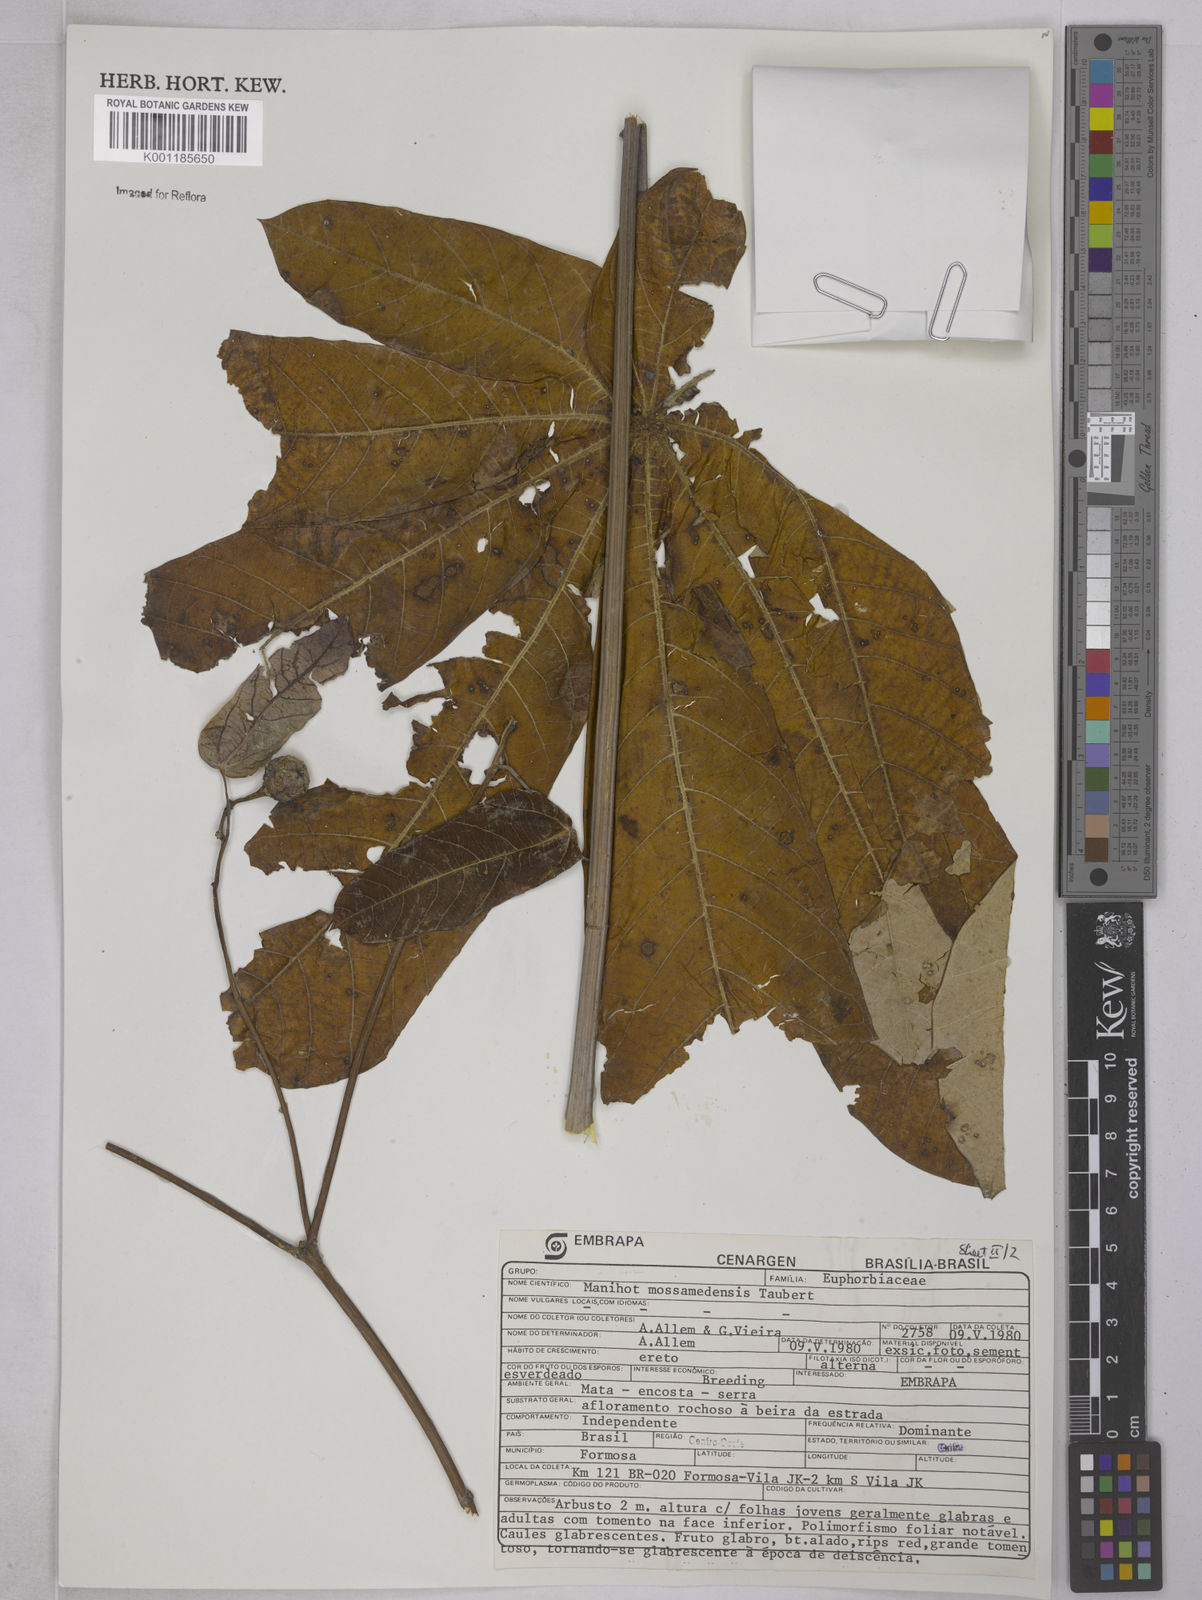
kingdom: Plantae
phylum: Tracheophyta
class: Magnoliopsida
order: Malpighiales
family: Euphorbiaceae
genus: Manihot
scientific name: Manihot mossamedensis
